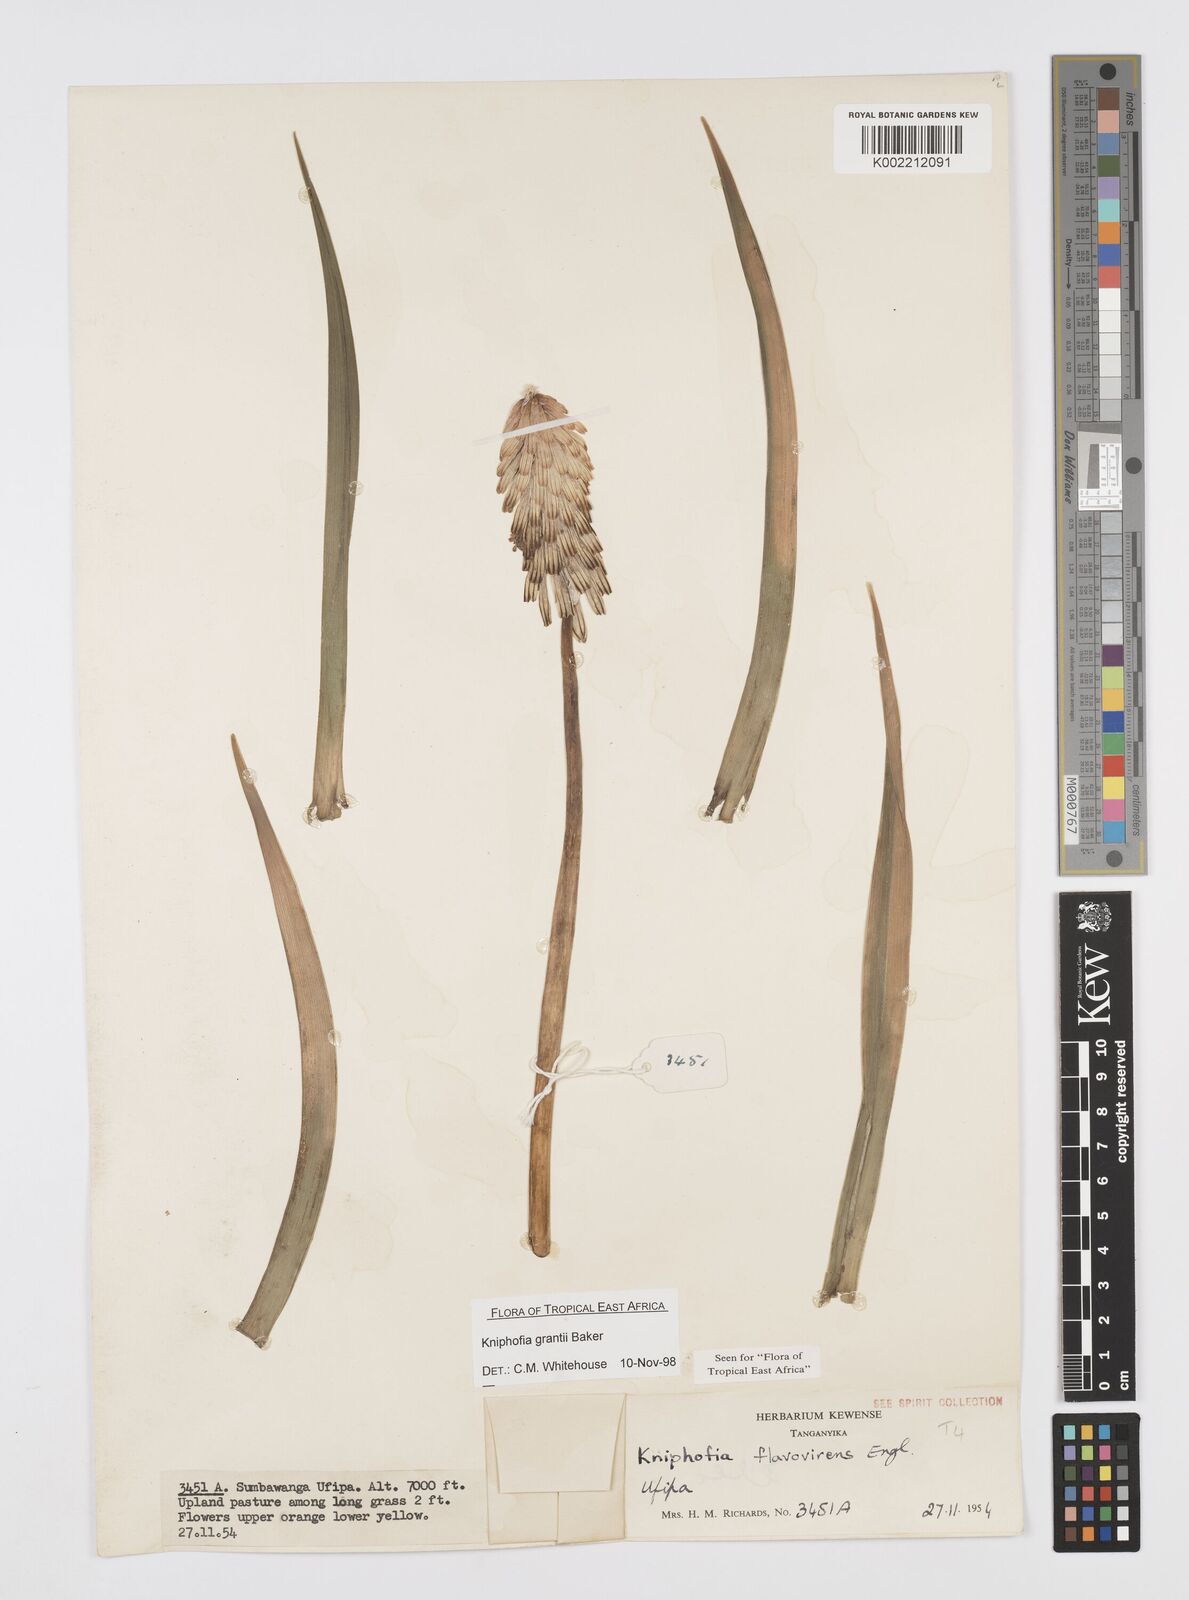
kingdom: Plantae
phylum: Tracheophyta
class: Liliopsida
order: Asparagales
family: Asphodelaceae
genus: Kniphofia
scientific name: Kniphofia grantii
